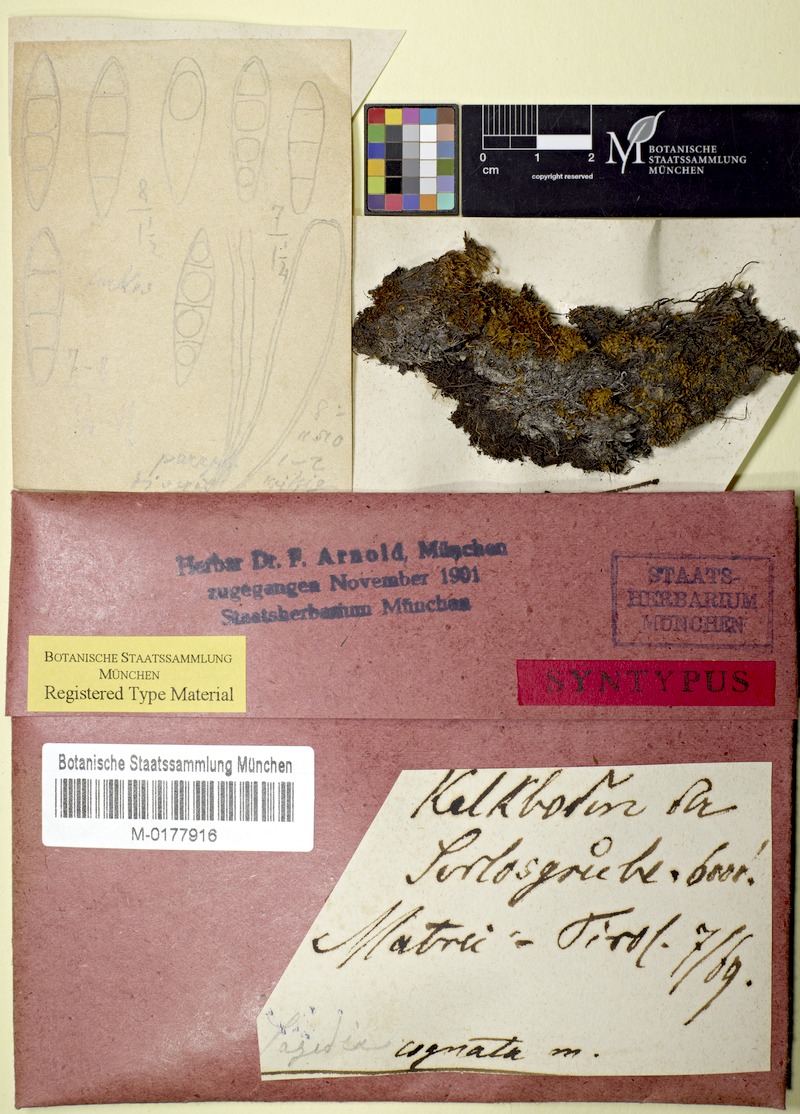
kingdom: Fungi
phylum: Ascomycota
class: Dothideomycetes
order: Dothideales
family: Saccotheciaceae
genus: Metasphaeria
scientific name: Metasphaeria cognata
